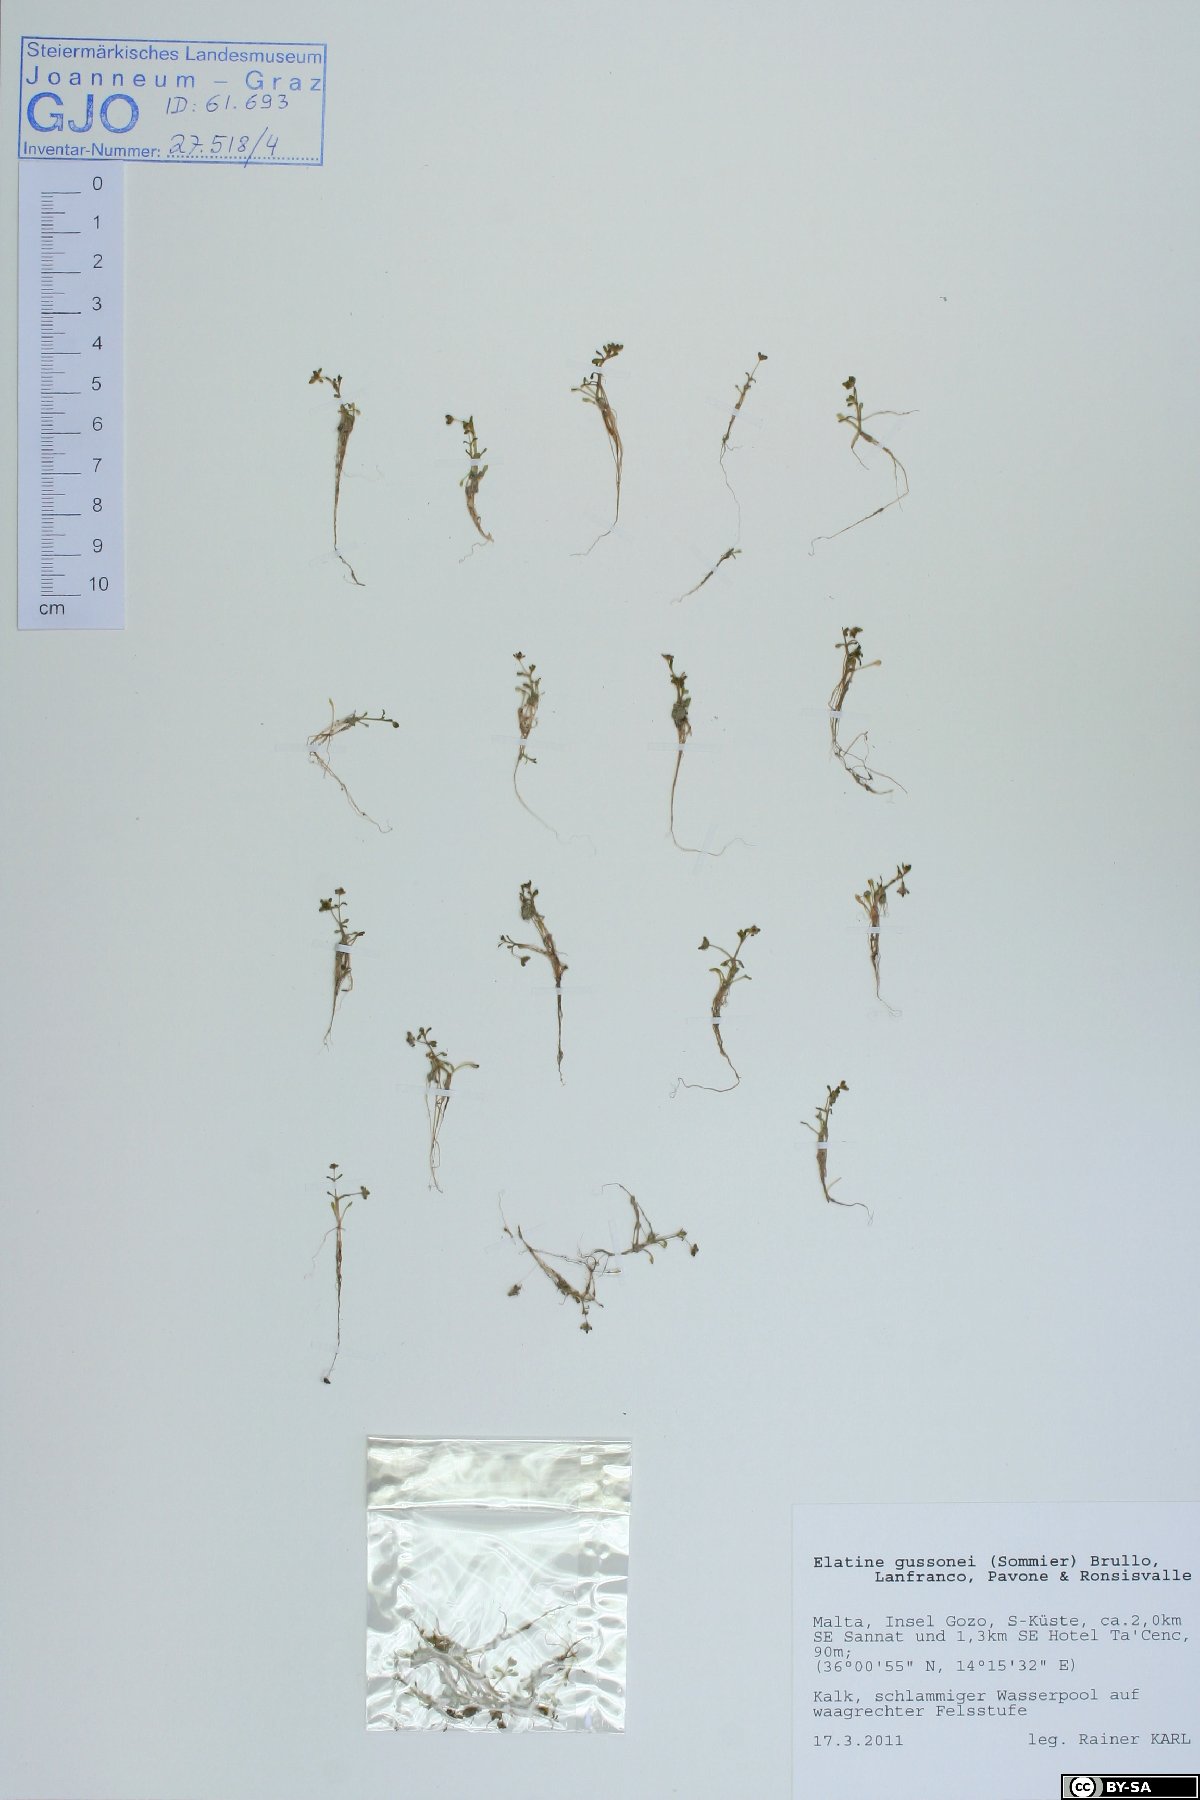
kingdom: Plantae
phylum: Tracheophyta
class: Magnoliopsida
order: Malpighiales
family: Elatinaceae
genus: Elatine
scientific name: Elatine gussonei
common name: Maltese waterwort
